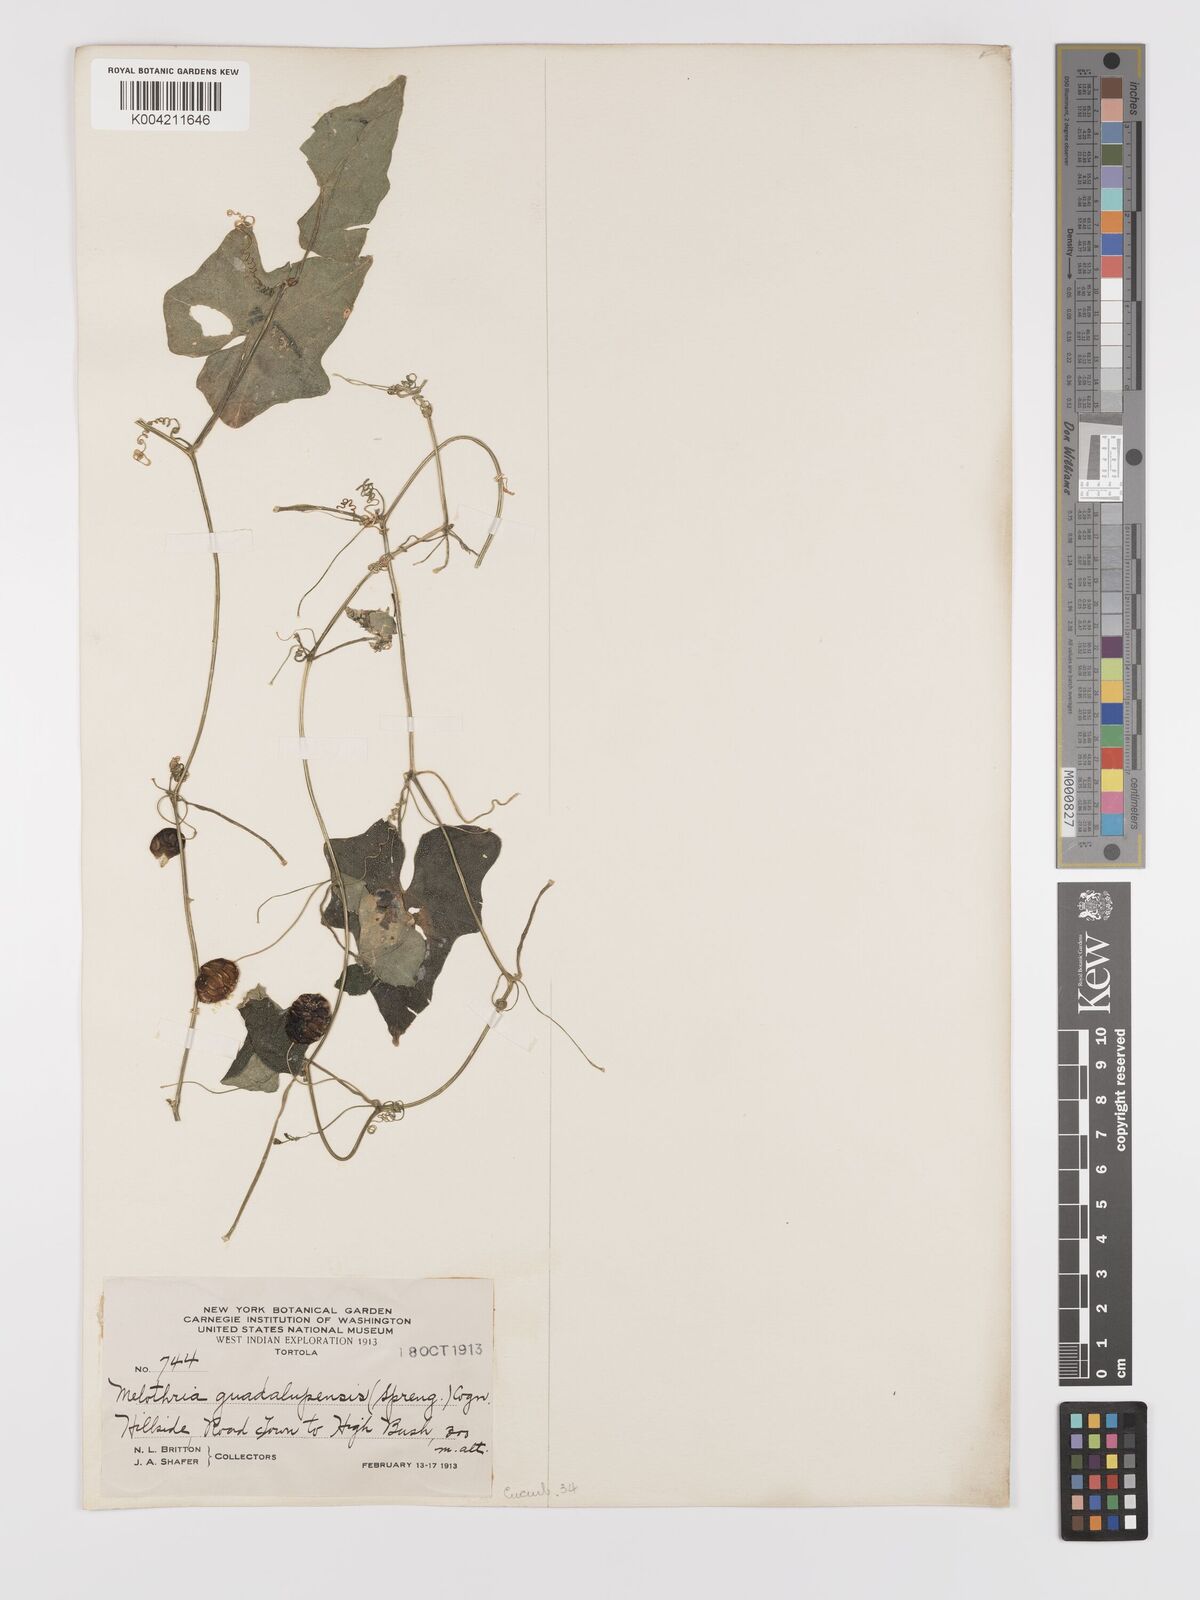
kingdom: Plantae
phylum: Tracheophyta
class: Magnoliopsida
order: Cucurbitales
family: Cucurbitaceae
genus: Melothria
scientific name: Melothria
